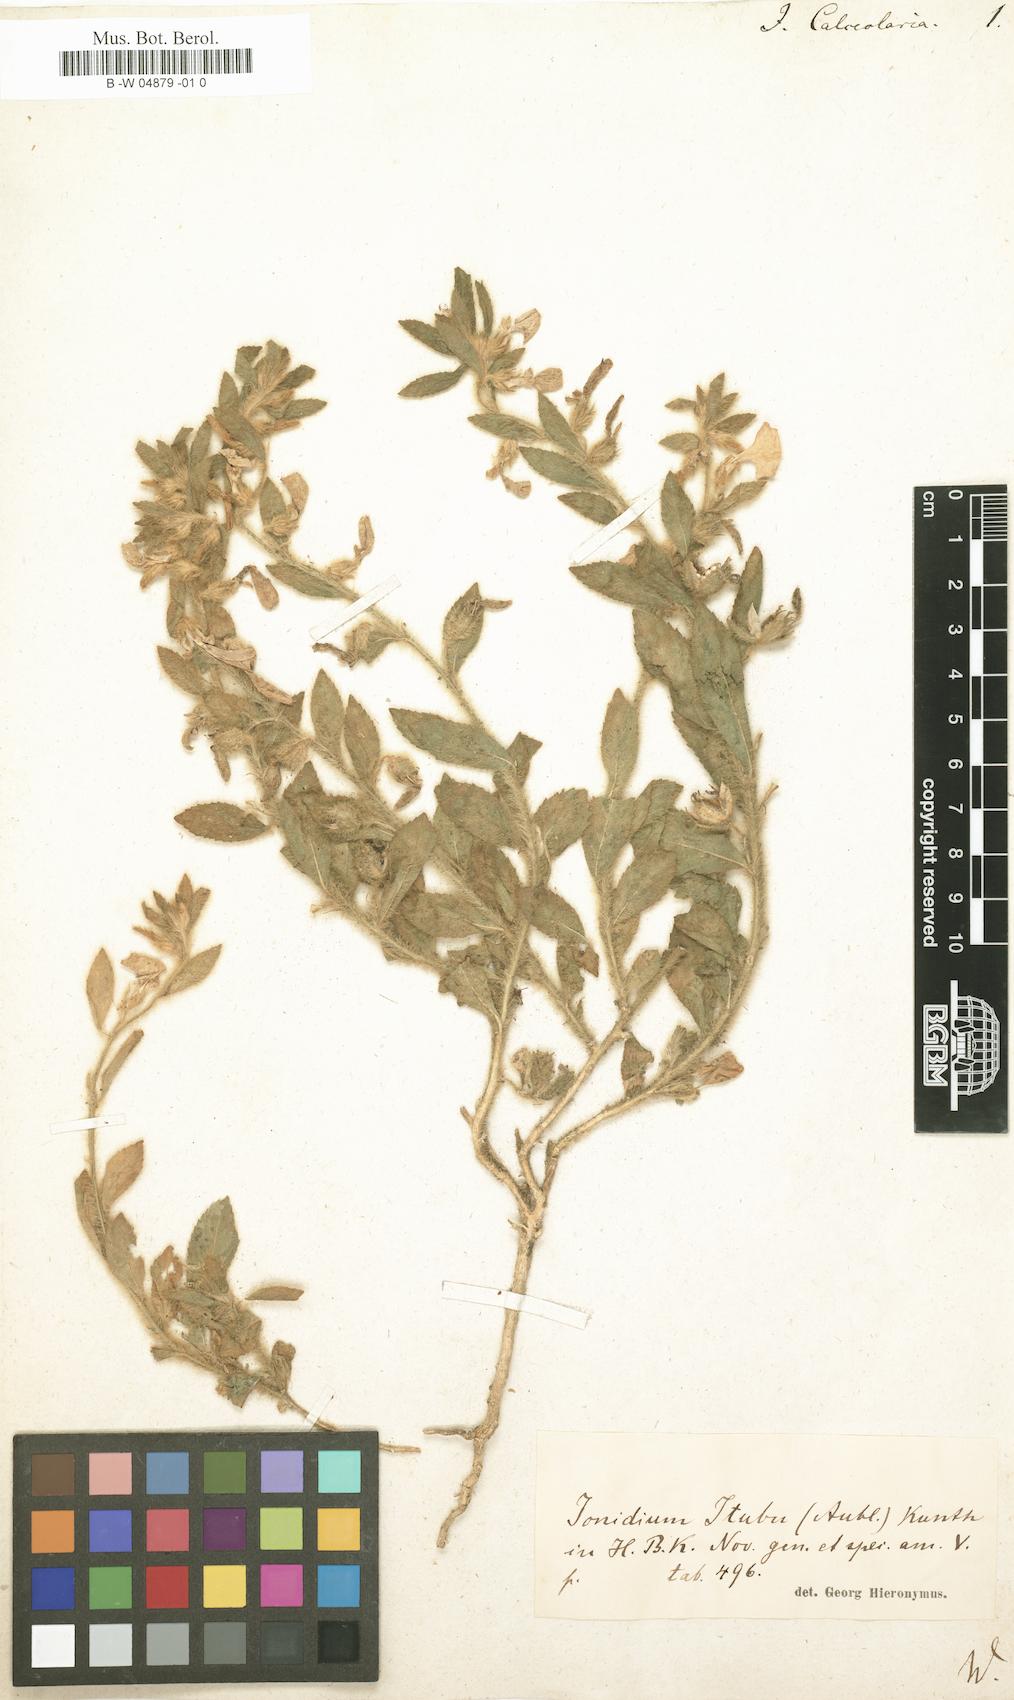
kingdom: Plantae
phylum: Tracheophyta
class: Magnoliopsida
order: Malpighiales
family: Violaceae
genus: Pombalia
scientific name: Pombalia calceolaria
